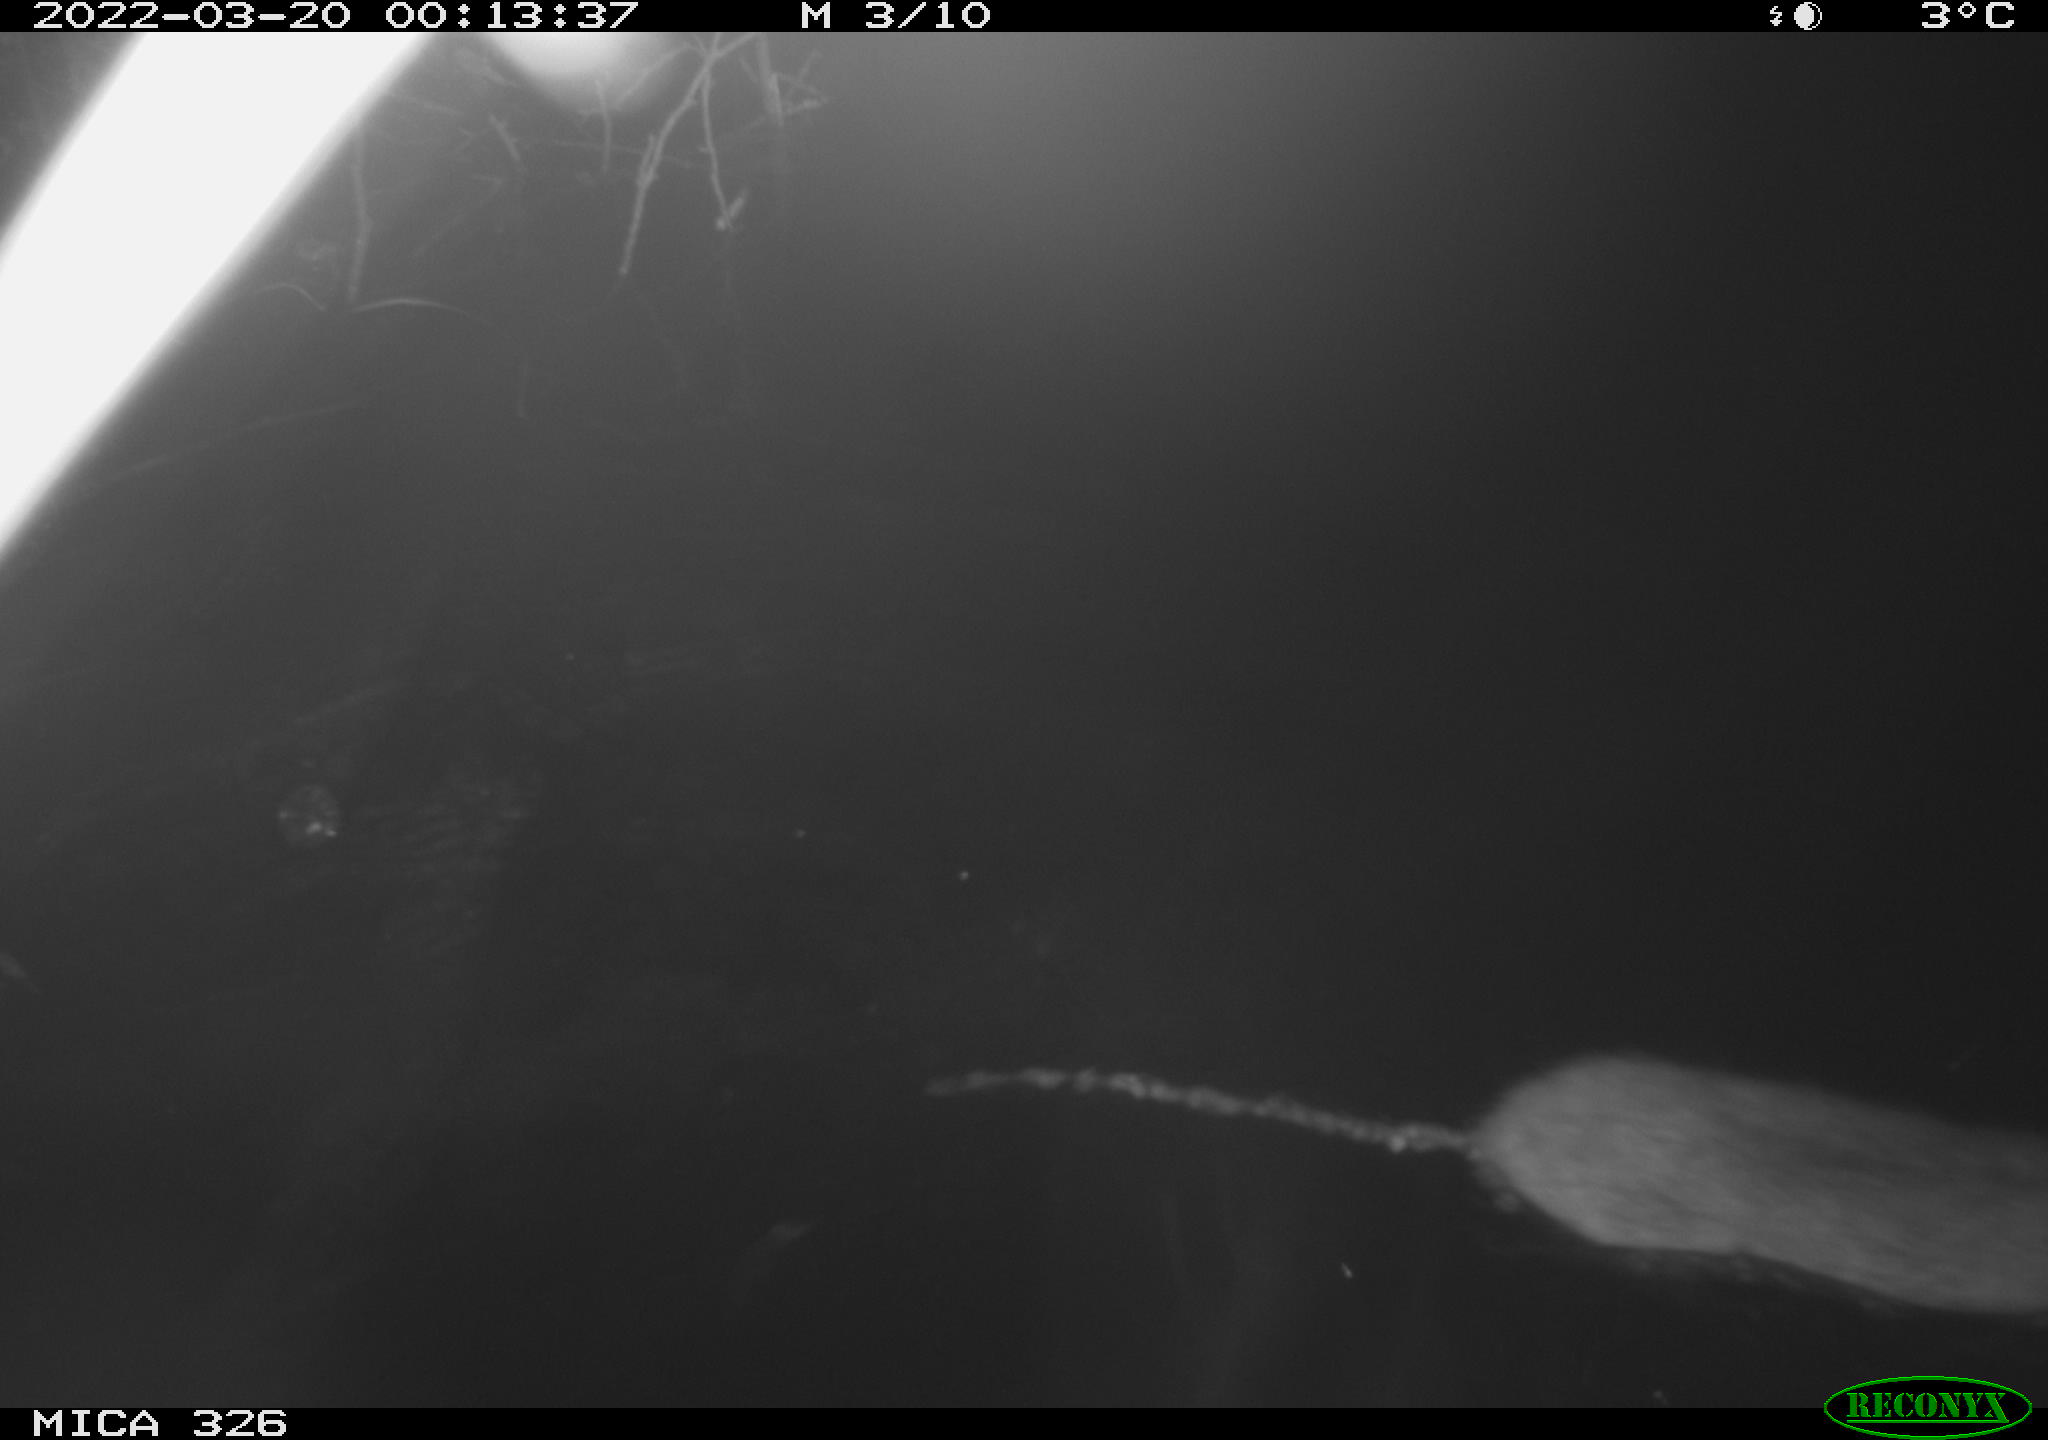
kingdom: Animalia
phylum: Chordata
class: Mammalia
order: Rodentia
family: Muridae
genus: Rattus
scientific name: Rattus norvegicus
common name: Brown rat
